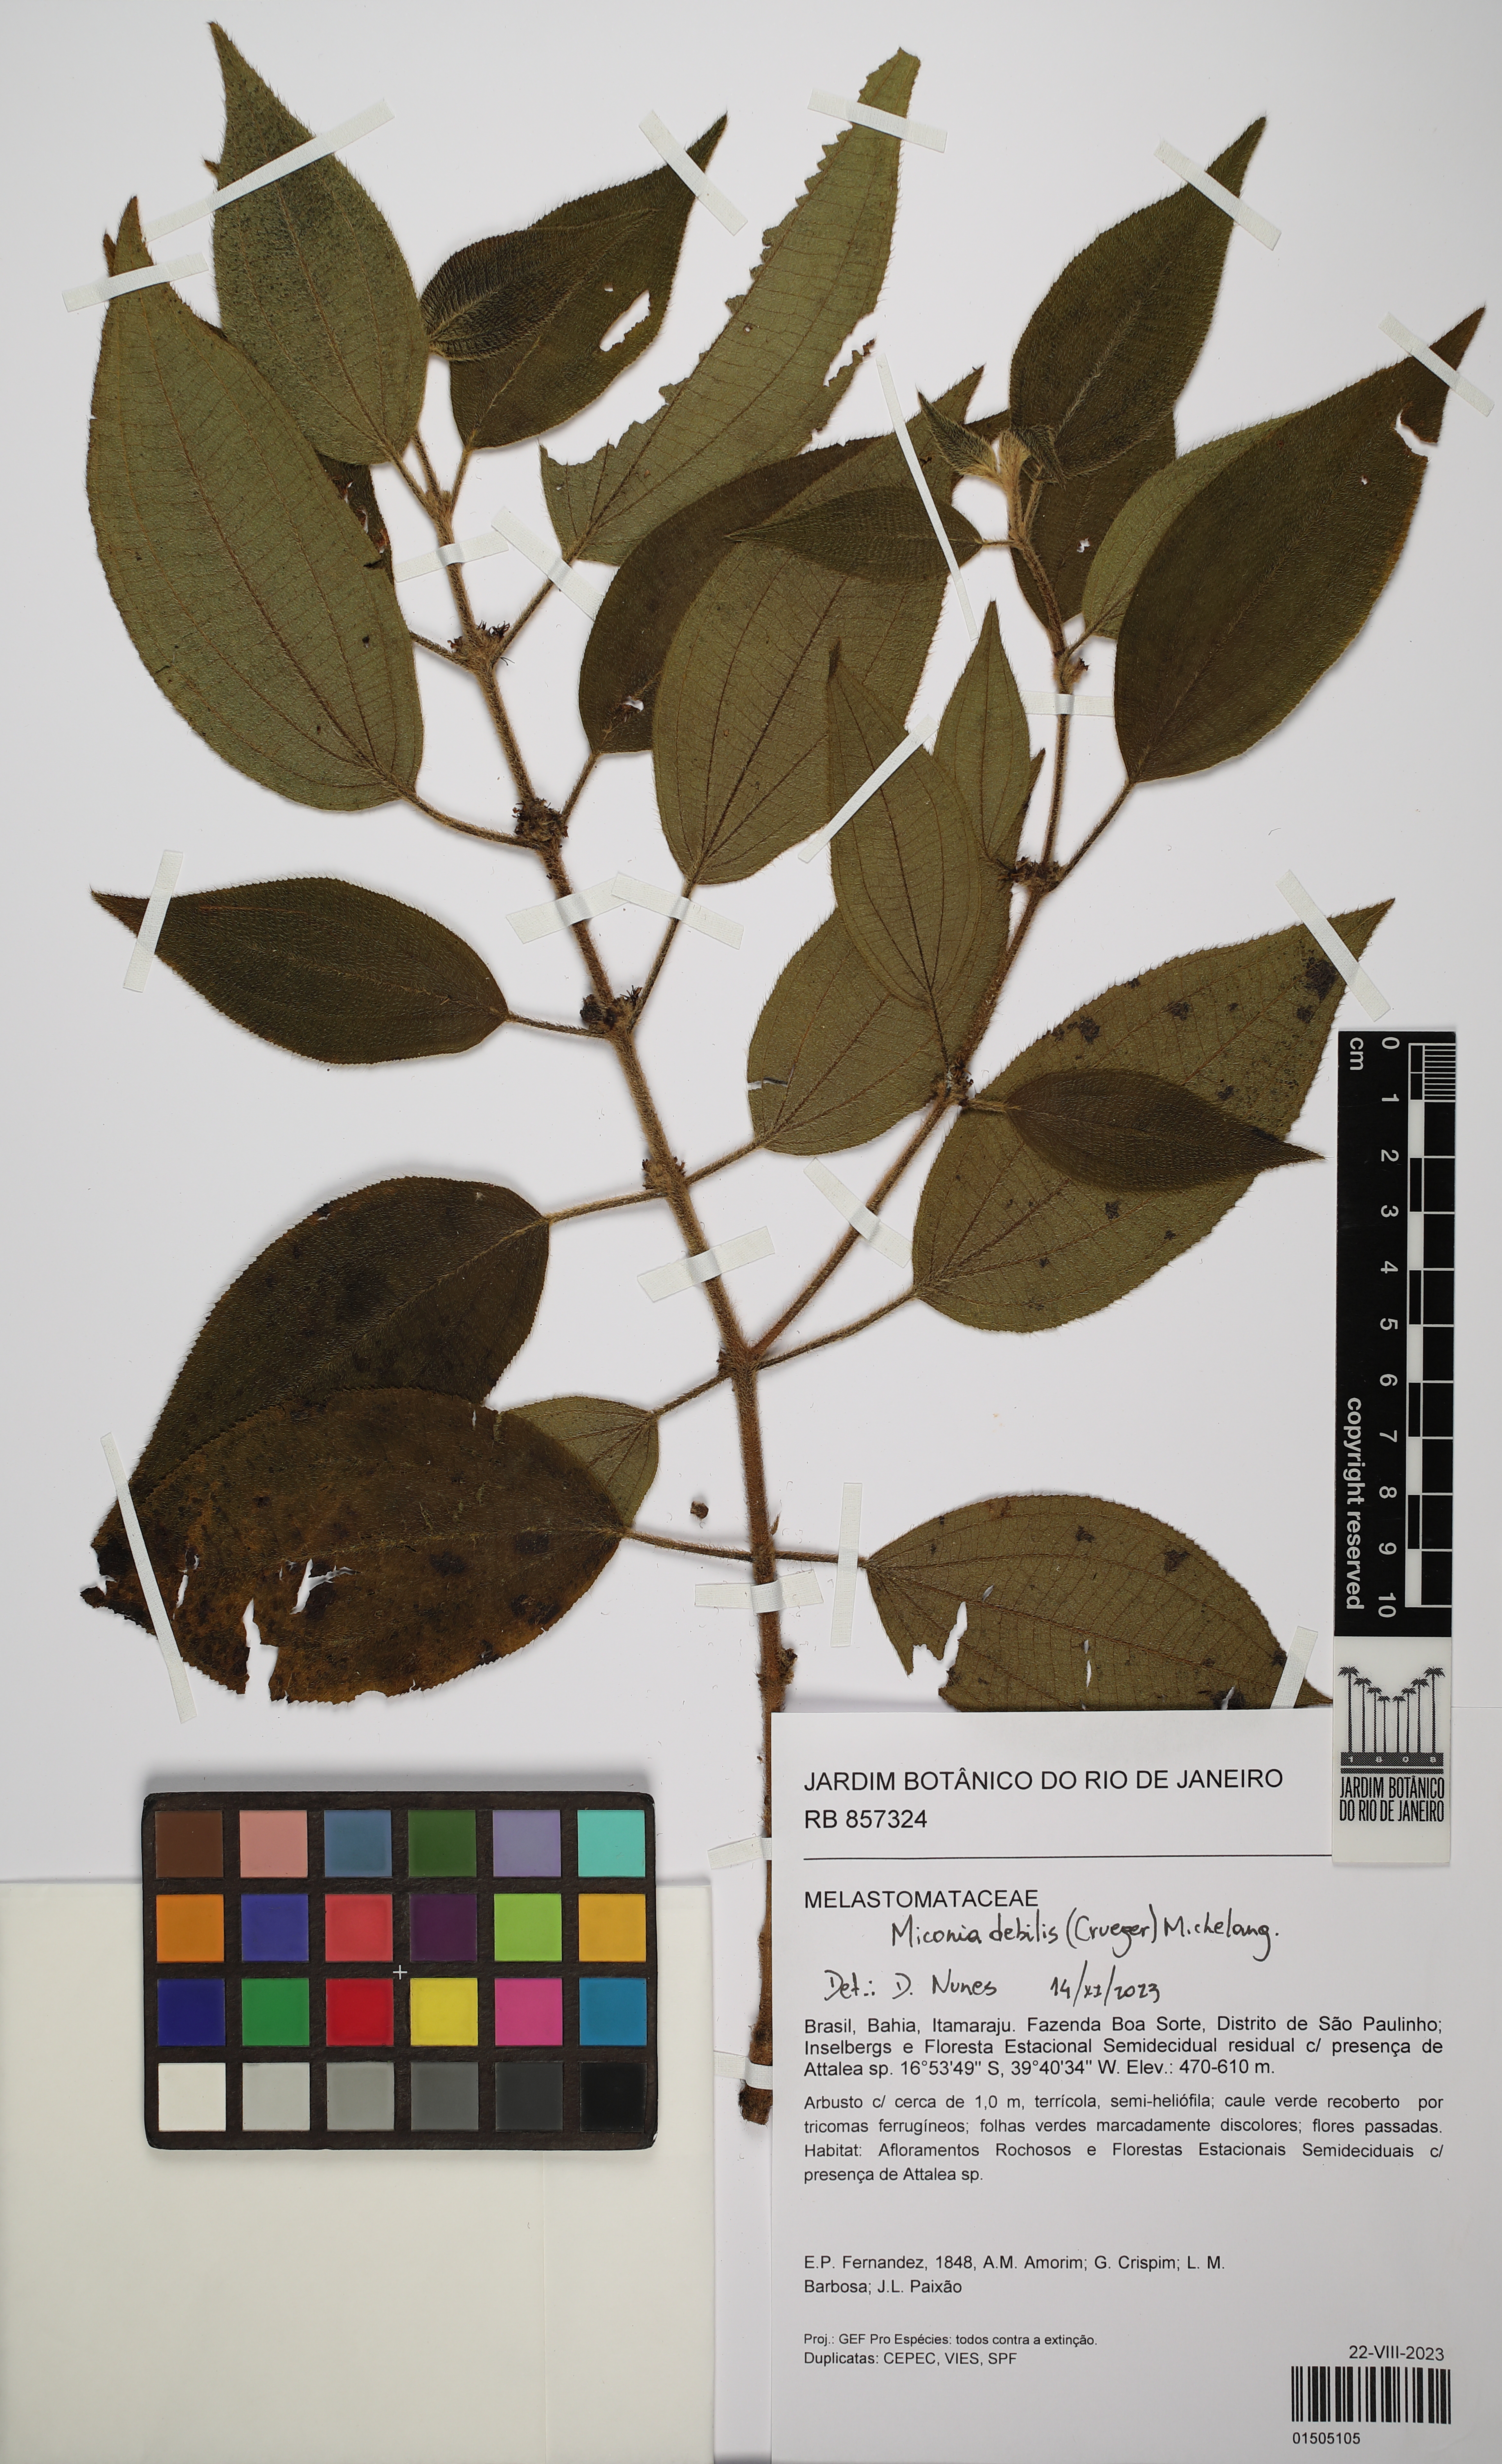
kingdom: Plantae
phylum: Tracheophyta
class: Magnoliopsida
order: Myrtales
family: Melastomataceae
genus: Miconia
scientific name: Miconia debilis
